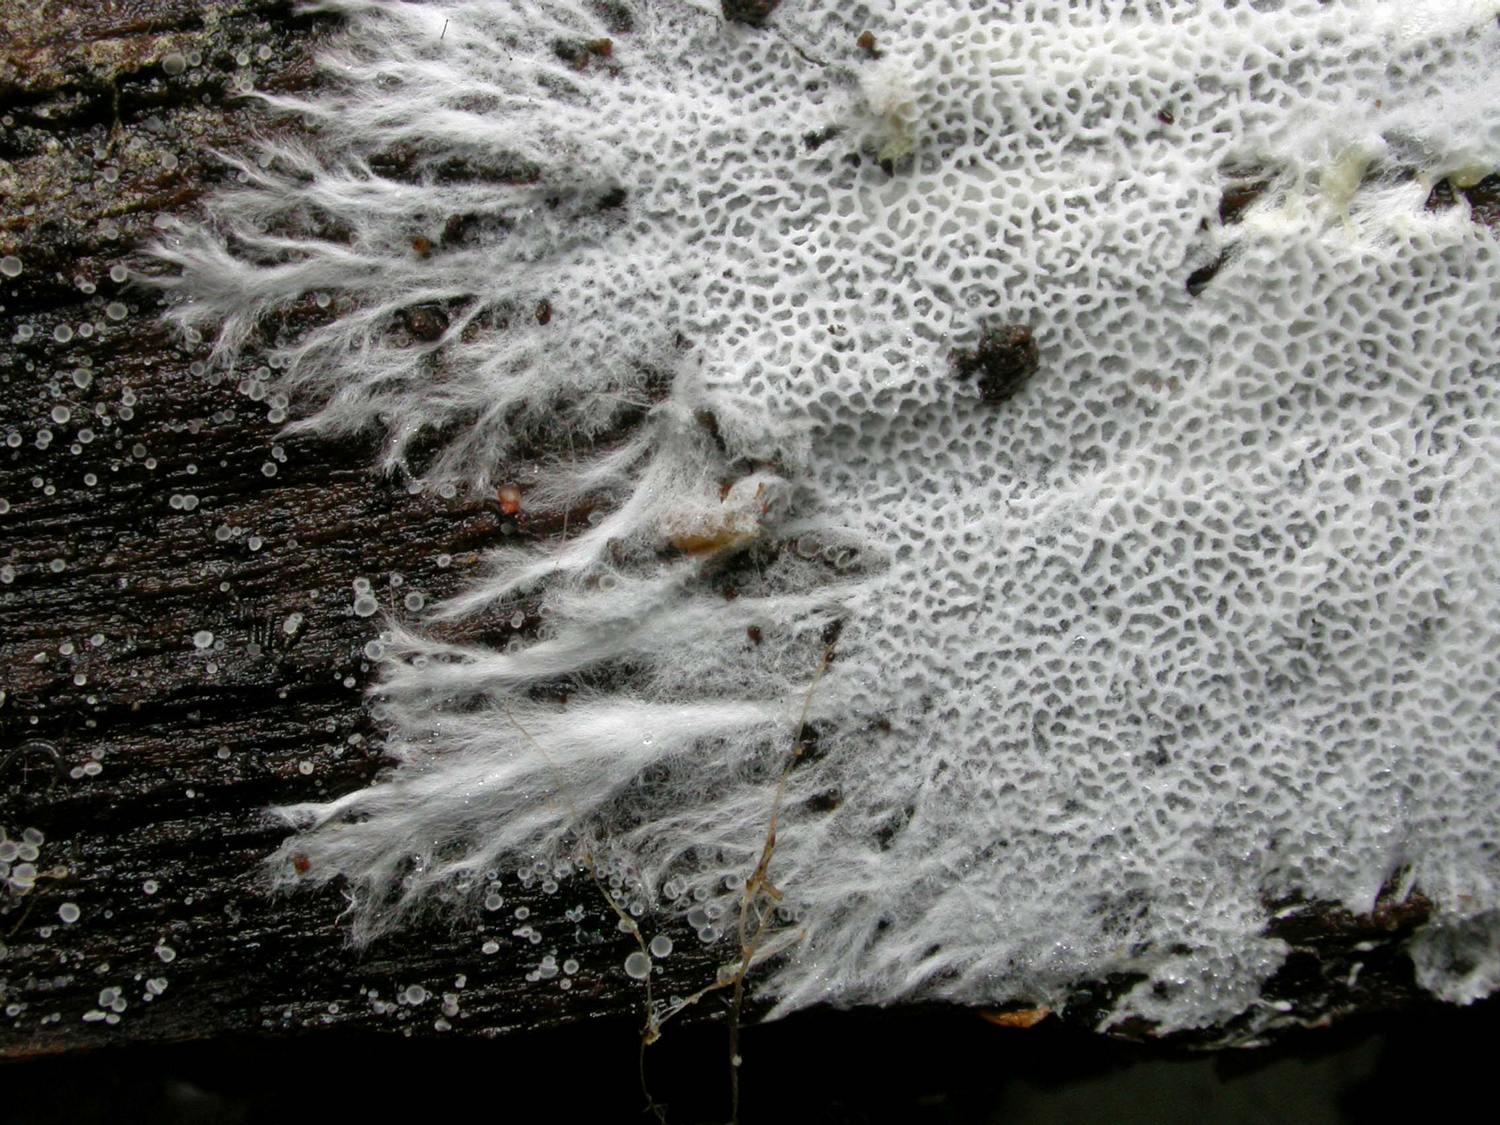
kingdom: Fungi
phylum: Basidiomycota
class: Agaricomycetes
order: Trechisporales
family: Sistotremataceae
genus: Trechispora
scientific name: Trechispora hymenocystis
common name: poret vathinde
